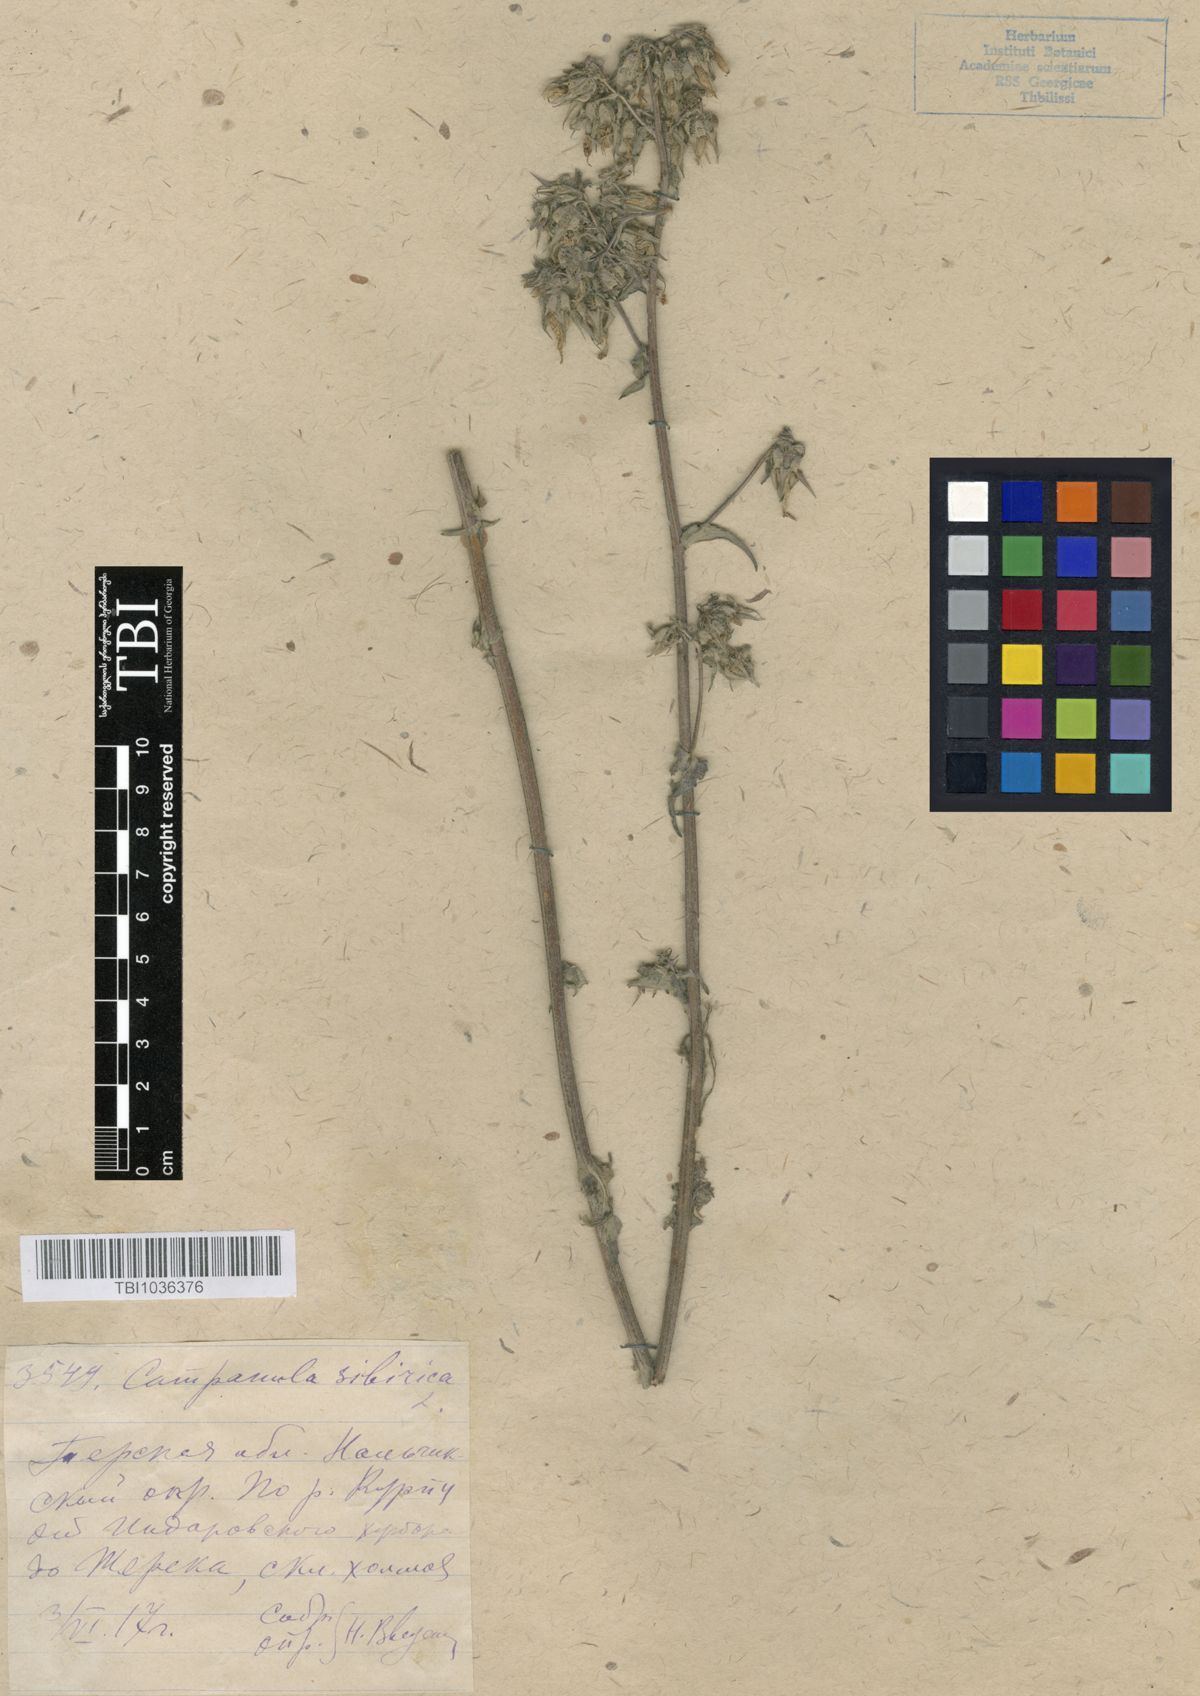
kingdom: Plantae
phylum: Tracheophyta
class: Magnoliopsida
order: Asterales
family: Campanulaceae
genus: Campanula
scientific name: Campanula sibirica
